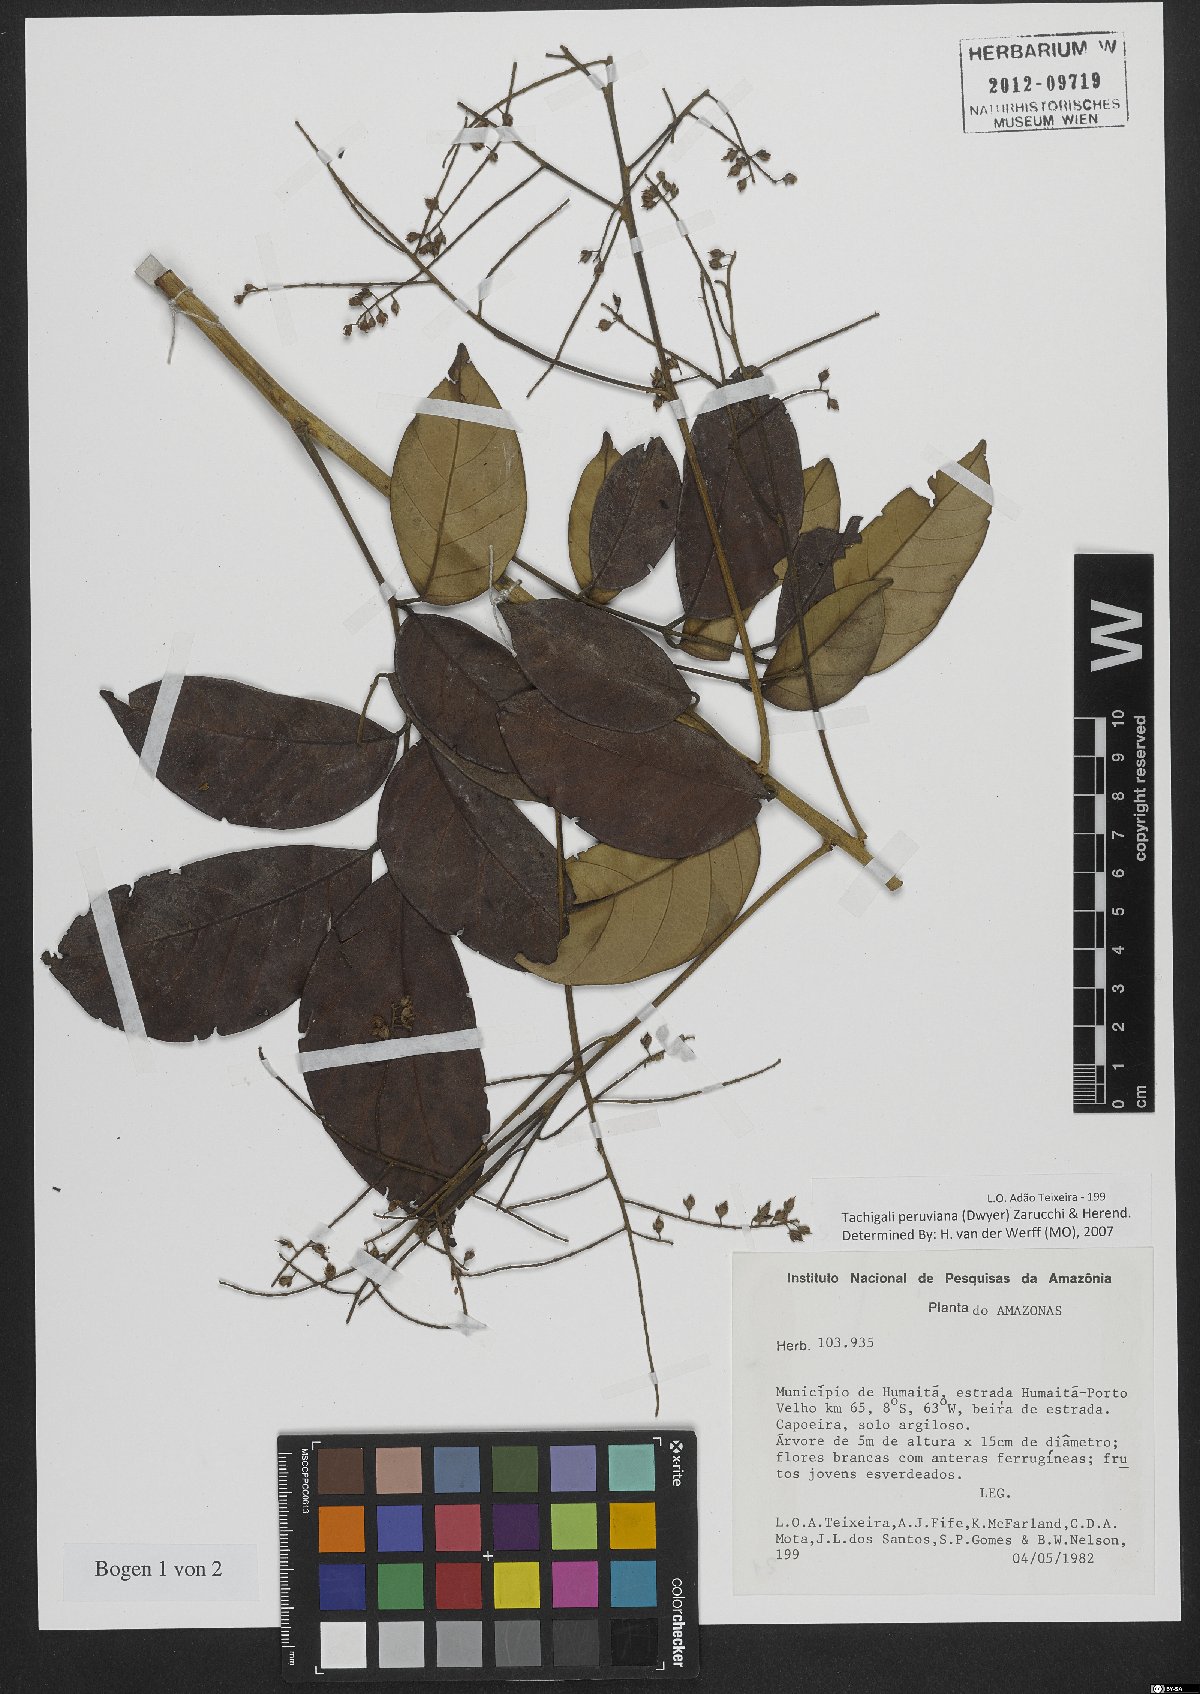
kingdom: Plantae
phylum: Tracheophyta
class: Magnoliopsida
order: Fabales
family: Fabaceae
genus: Tachigali
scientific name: Tachigali peruviana
